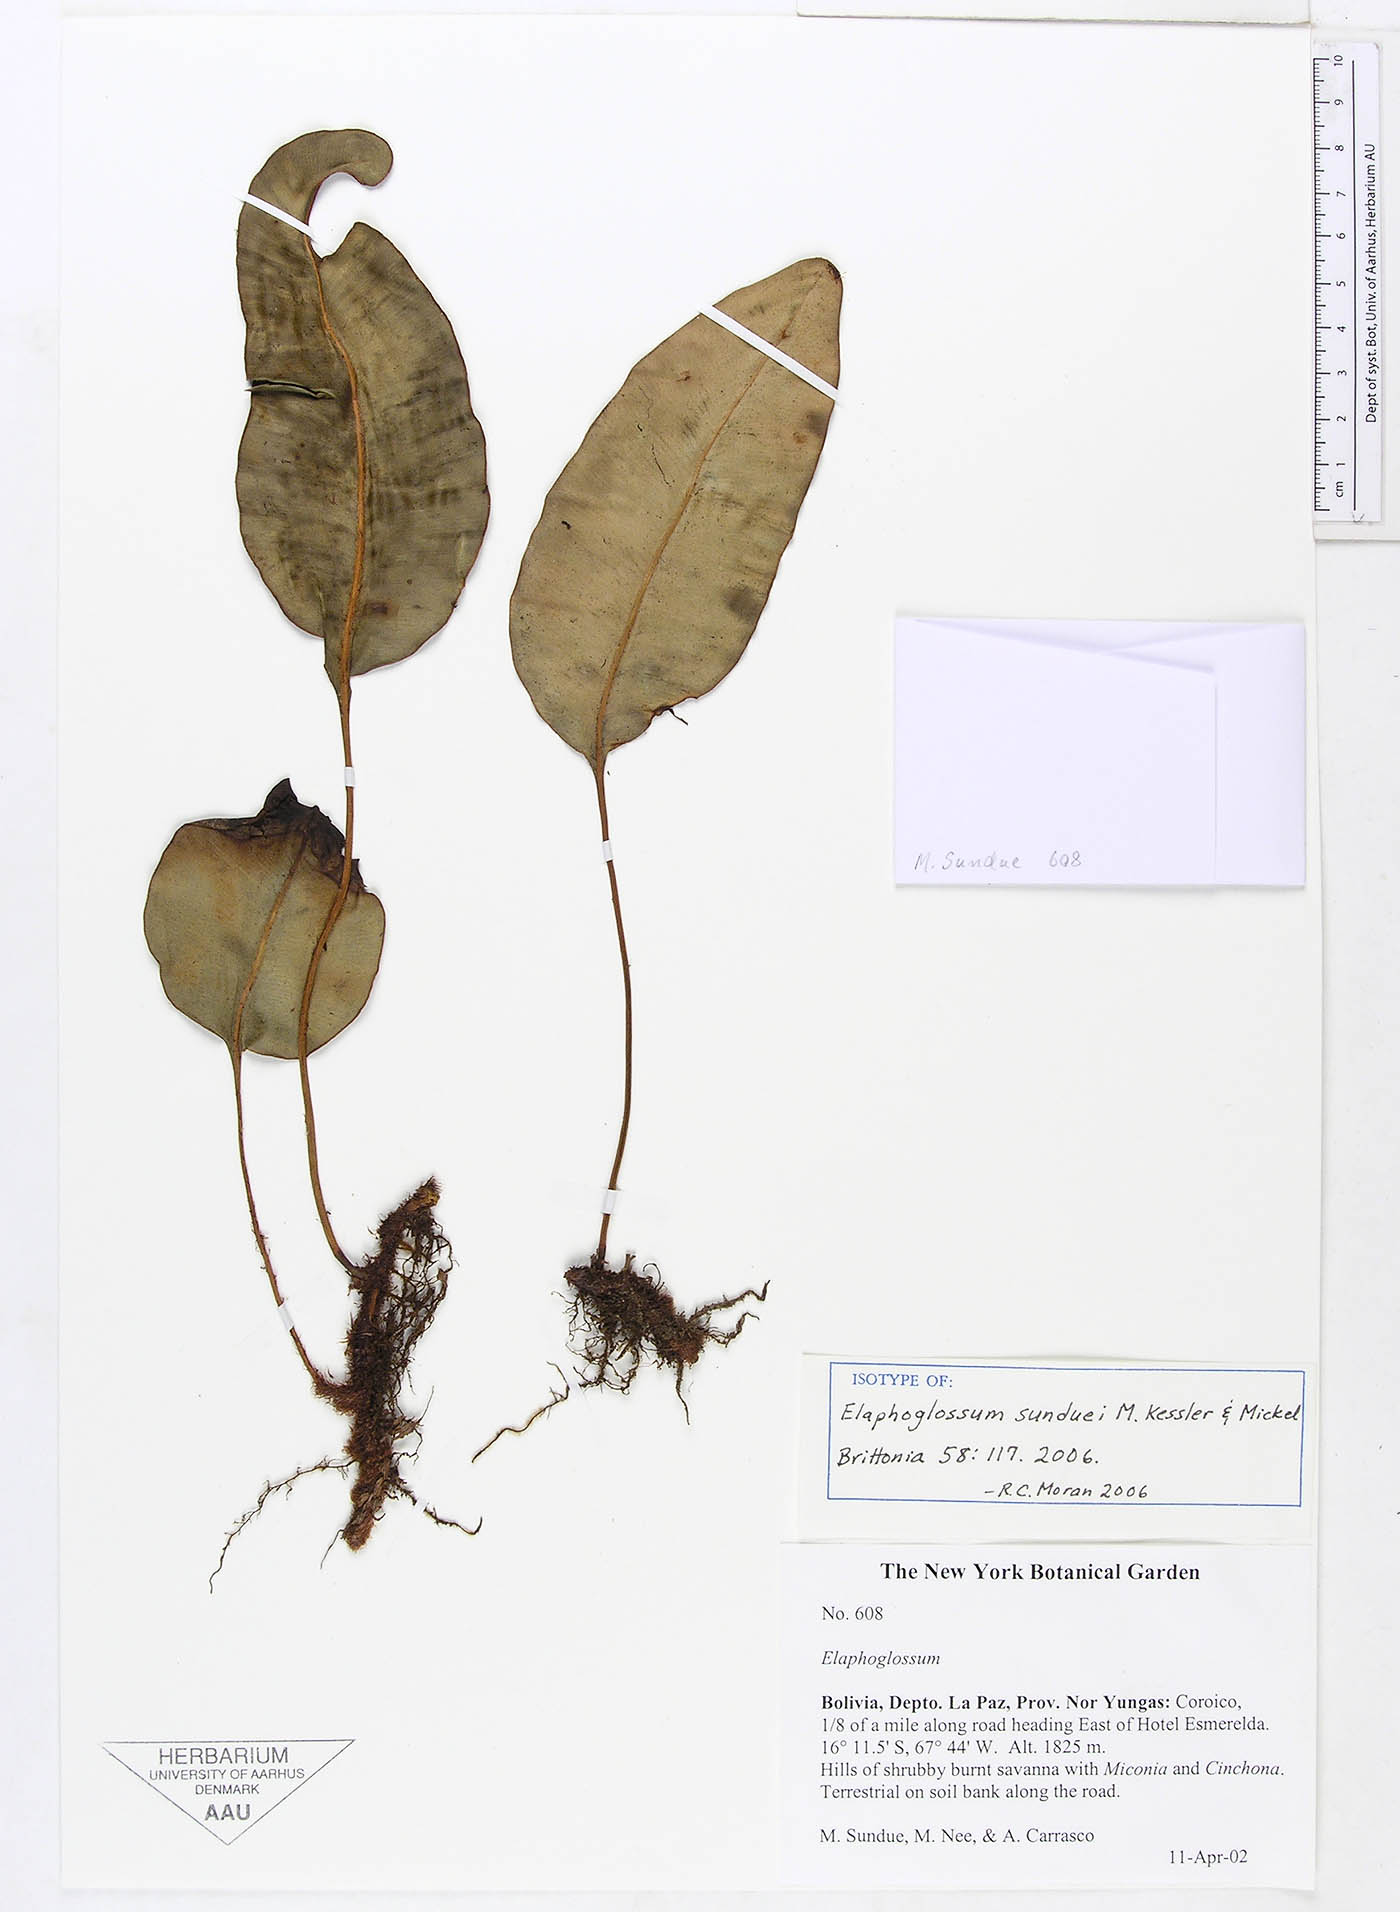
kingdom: Plantae
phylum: Tracheophyta
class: Polypodiopsida
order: Polypodiales
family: Dryopteridaceae
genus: Elaphoglossum
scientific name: Elaphoglossum sunduei
